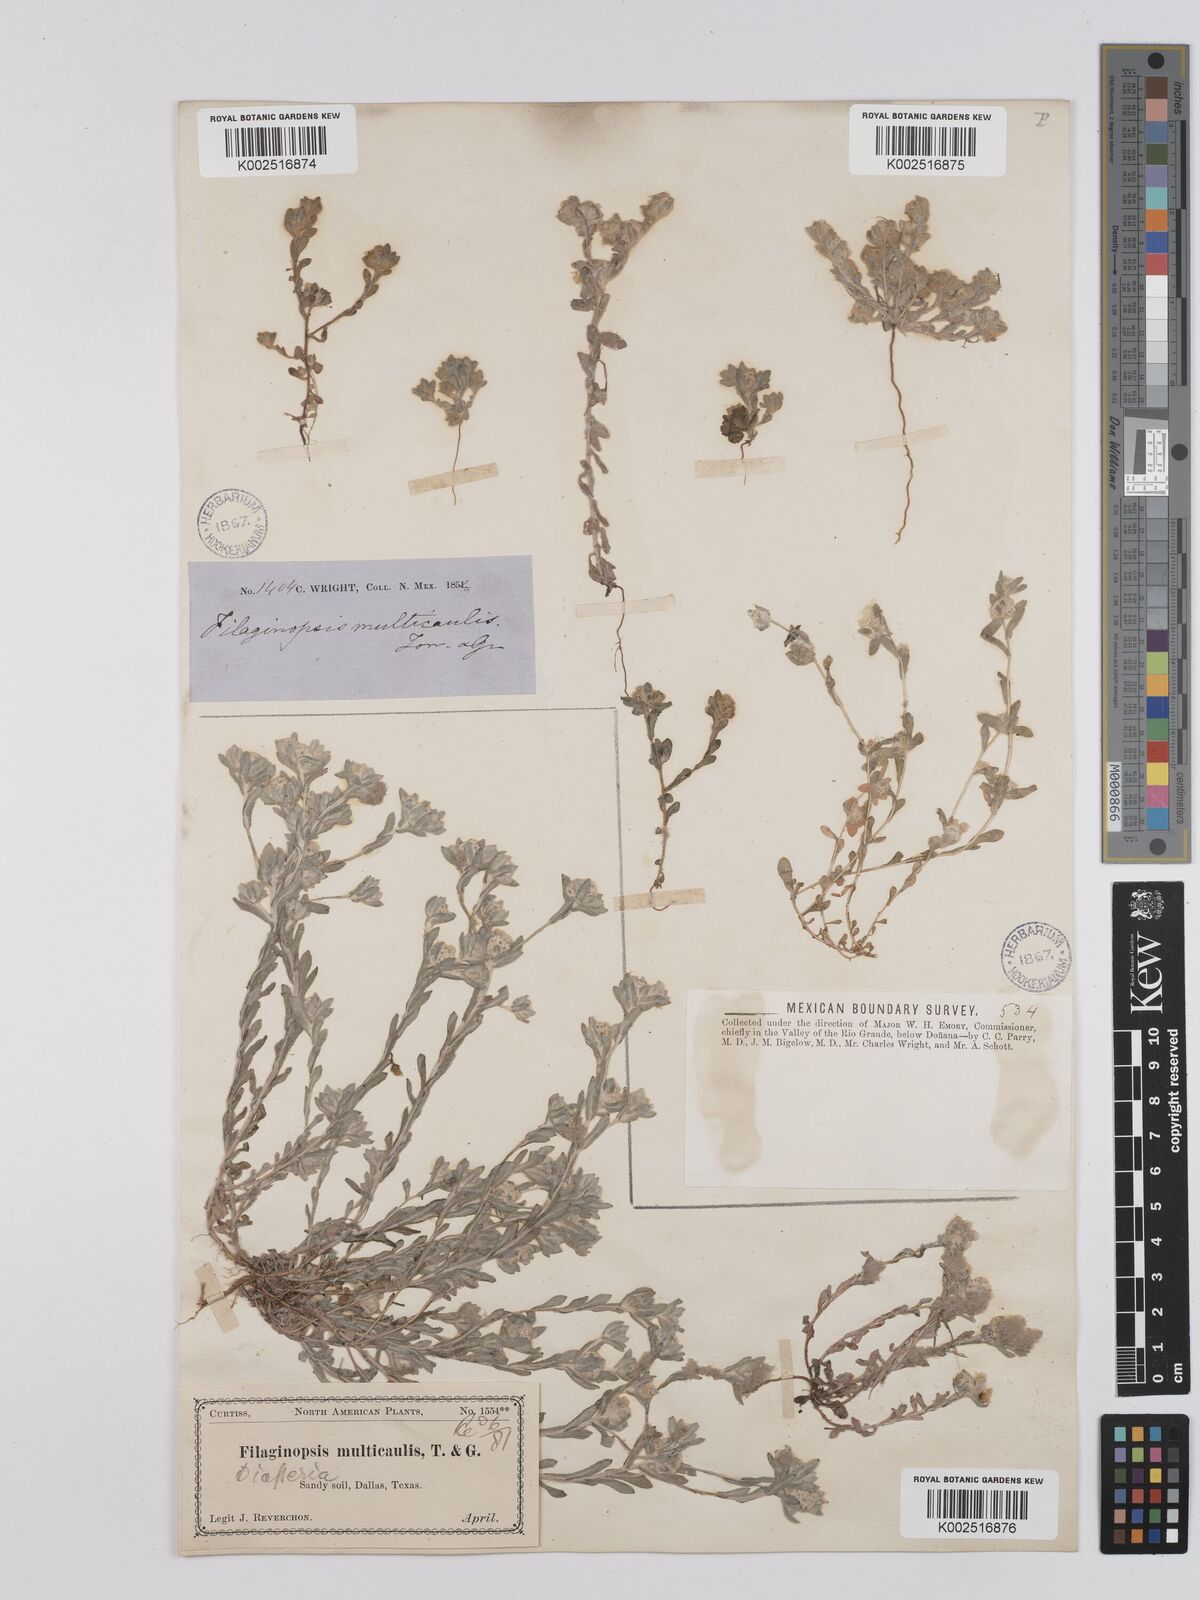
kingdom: Plantae
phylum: Tracheophyta
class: Magnoliopsida
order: Asterales
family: Asteraceae
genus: Filago
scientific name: Filago
